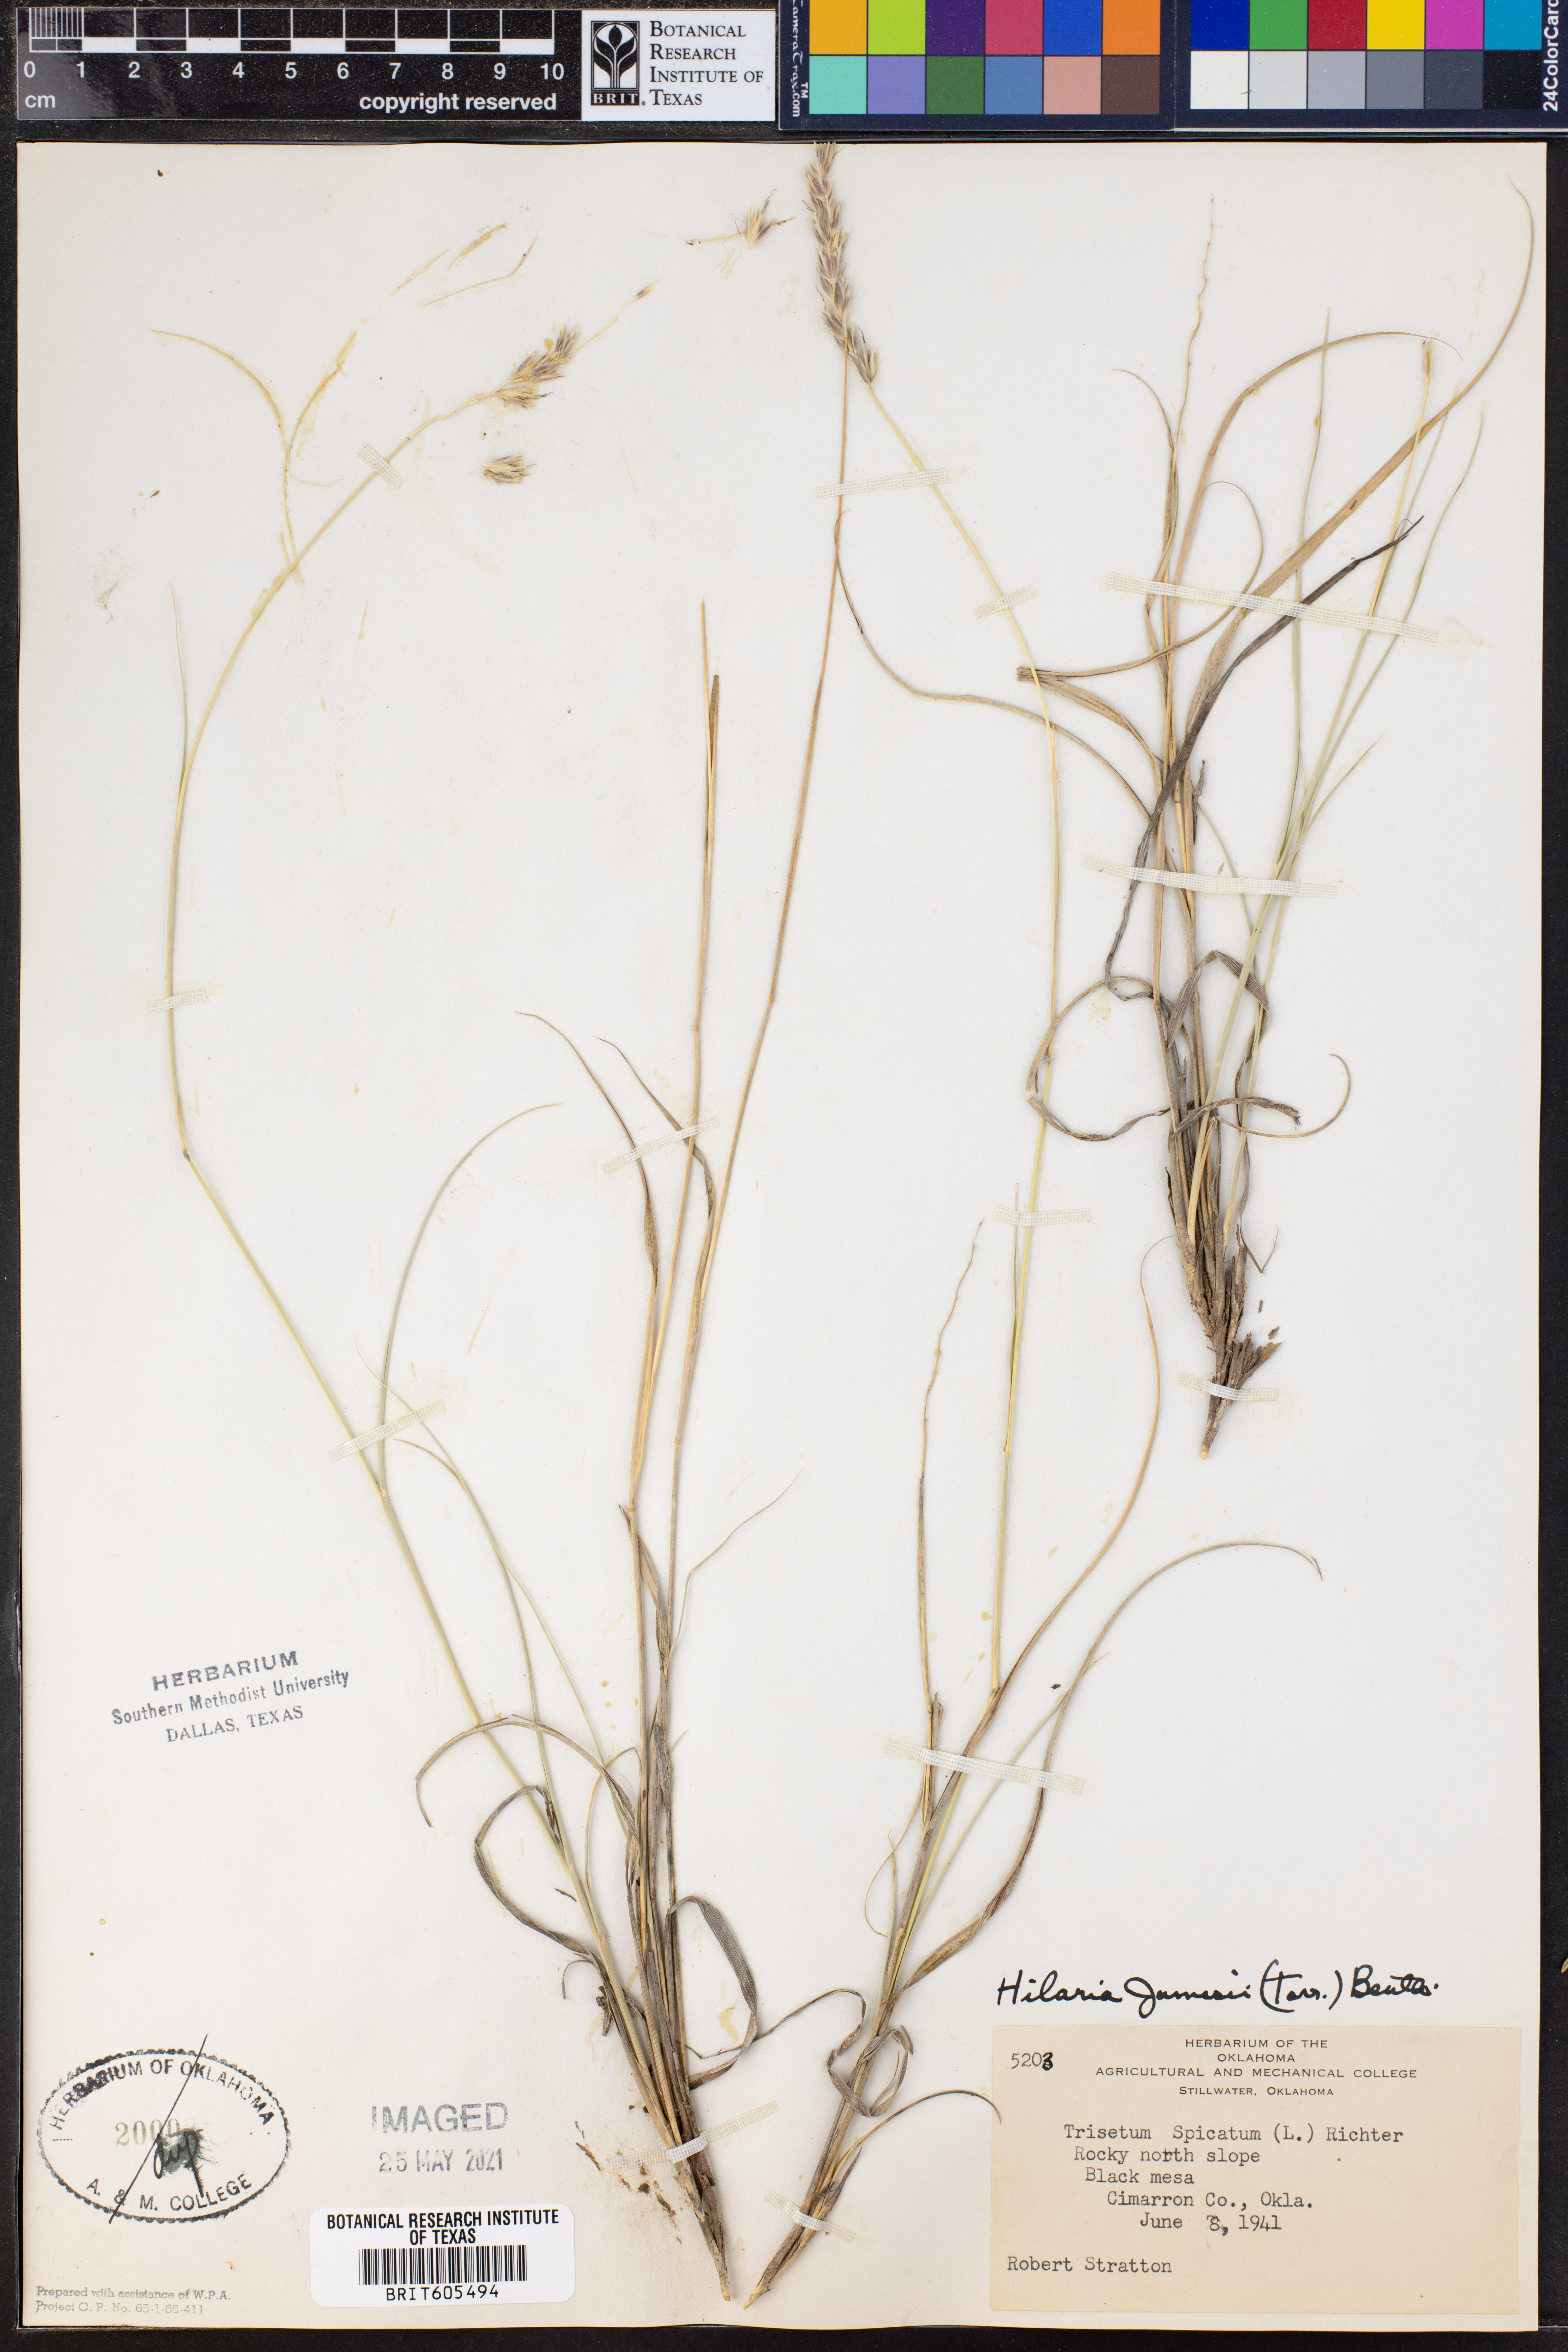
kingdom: Plantae
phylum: Tracheophyta
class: Liliopsida
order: Poales
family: Poaceae
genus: Hilaria
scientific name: Hilaria jamesii
